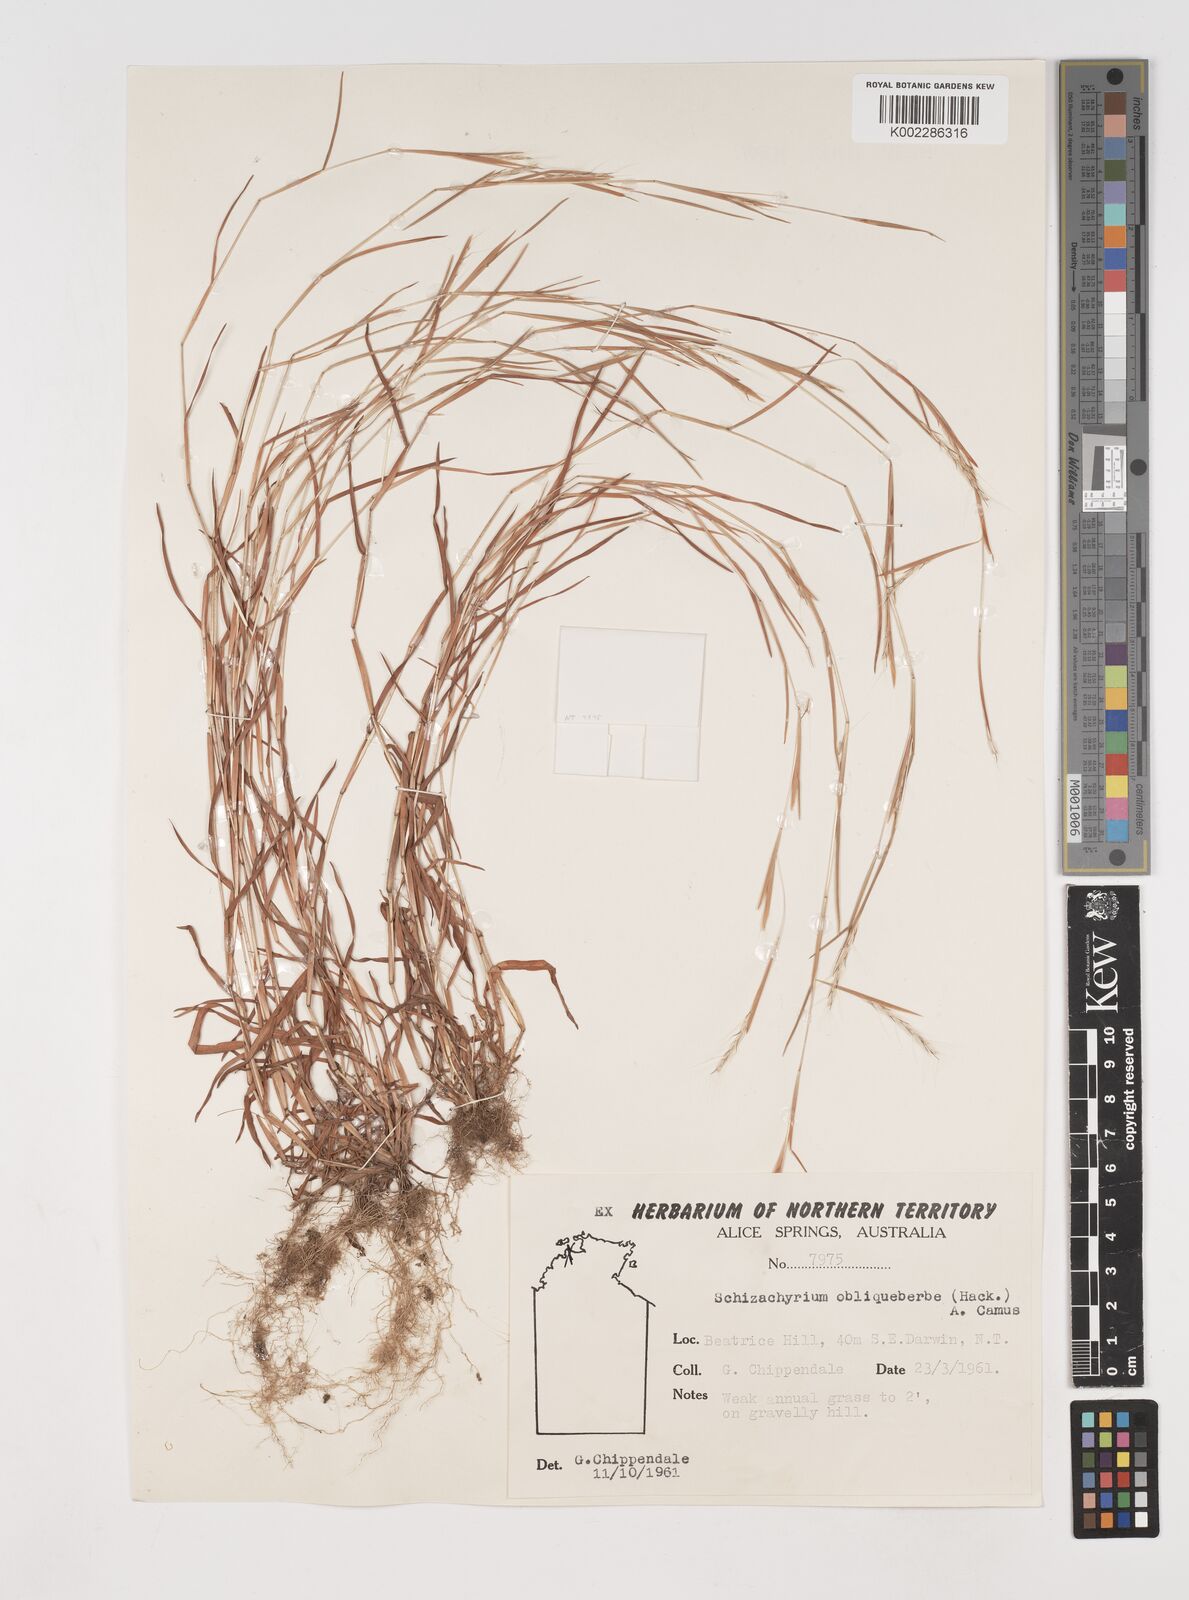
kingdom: Plantae
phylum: Tracheophyta
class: Liliopsida
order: Poales
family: Poaceae
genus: Schizachyrium
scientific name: Schizachyrium
